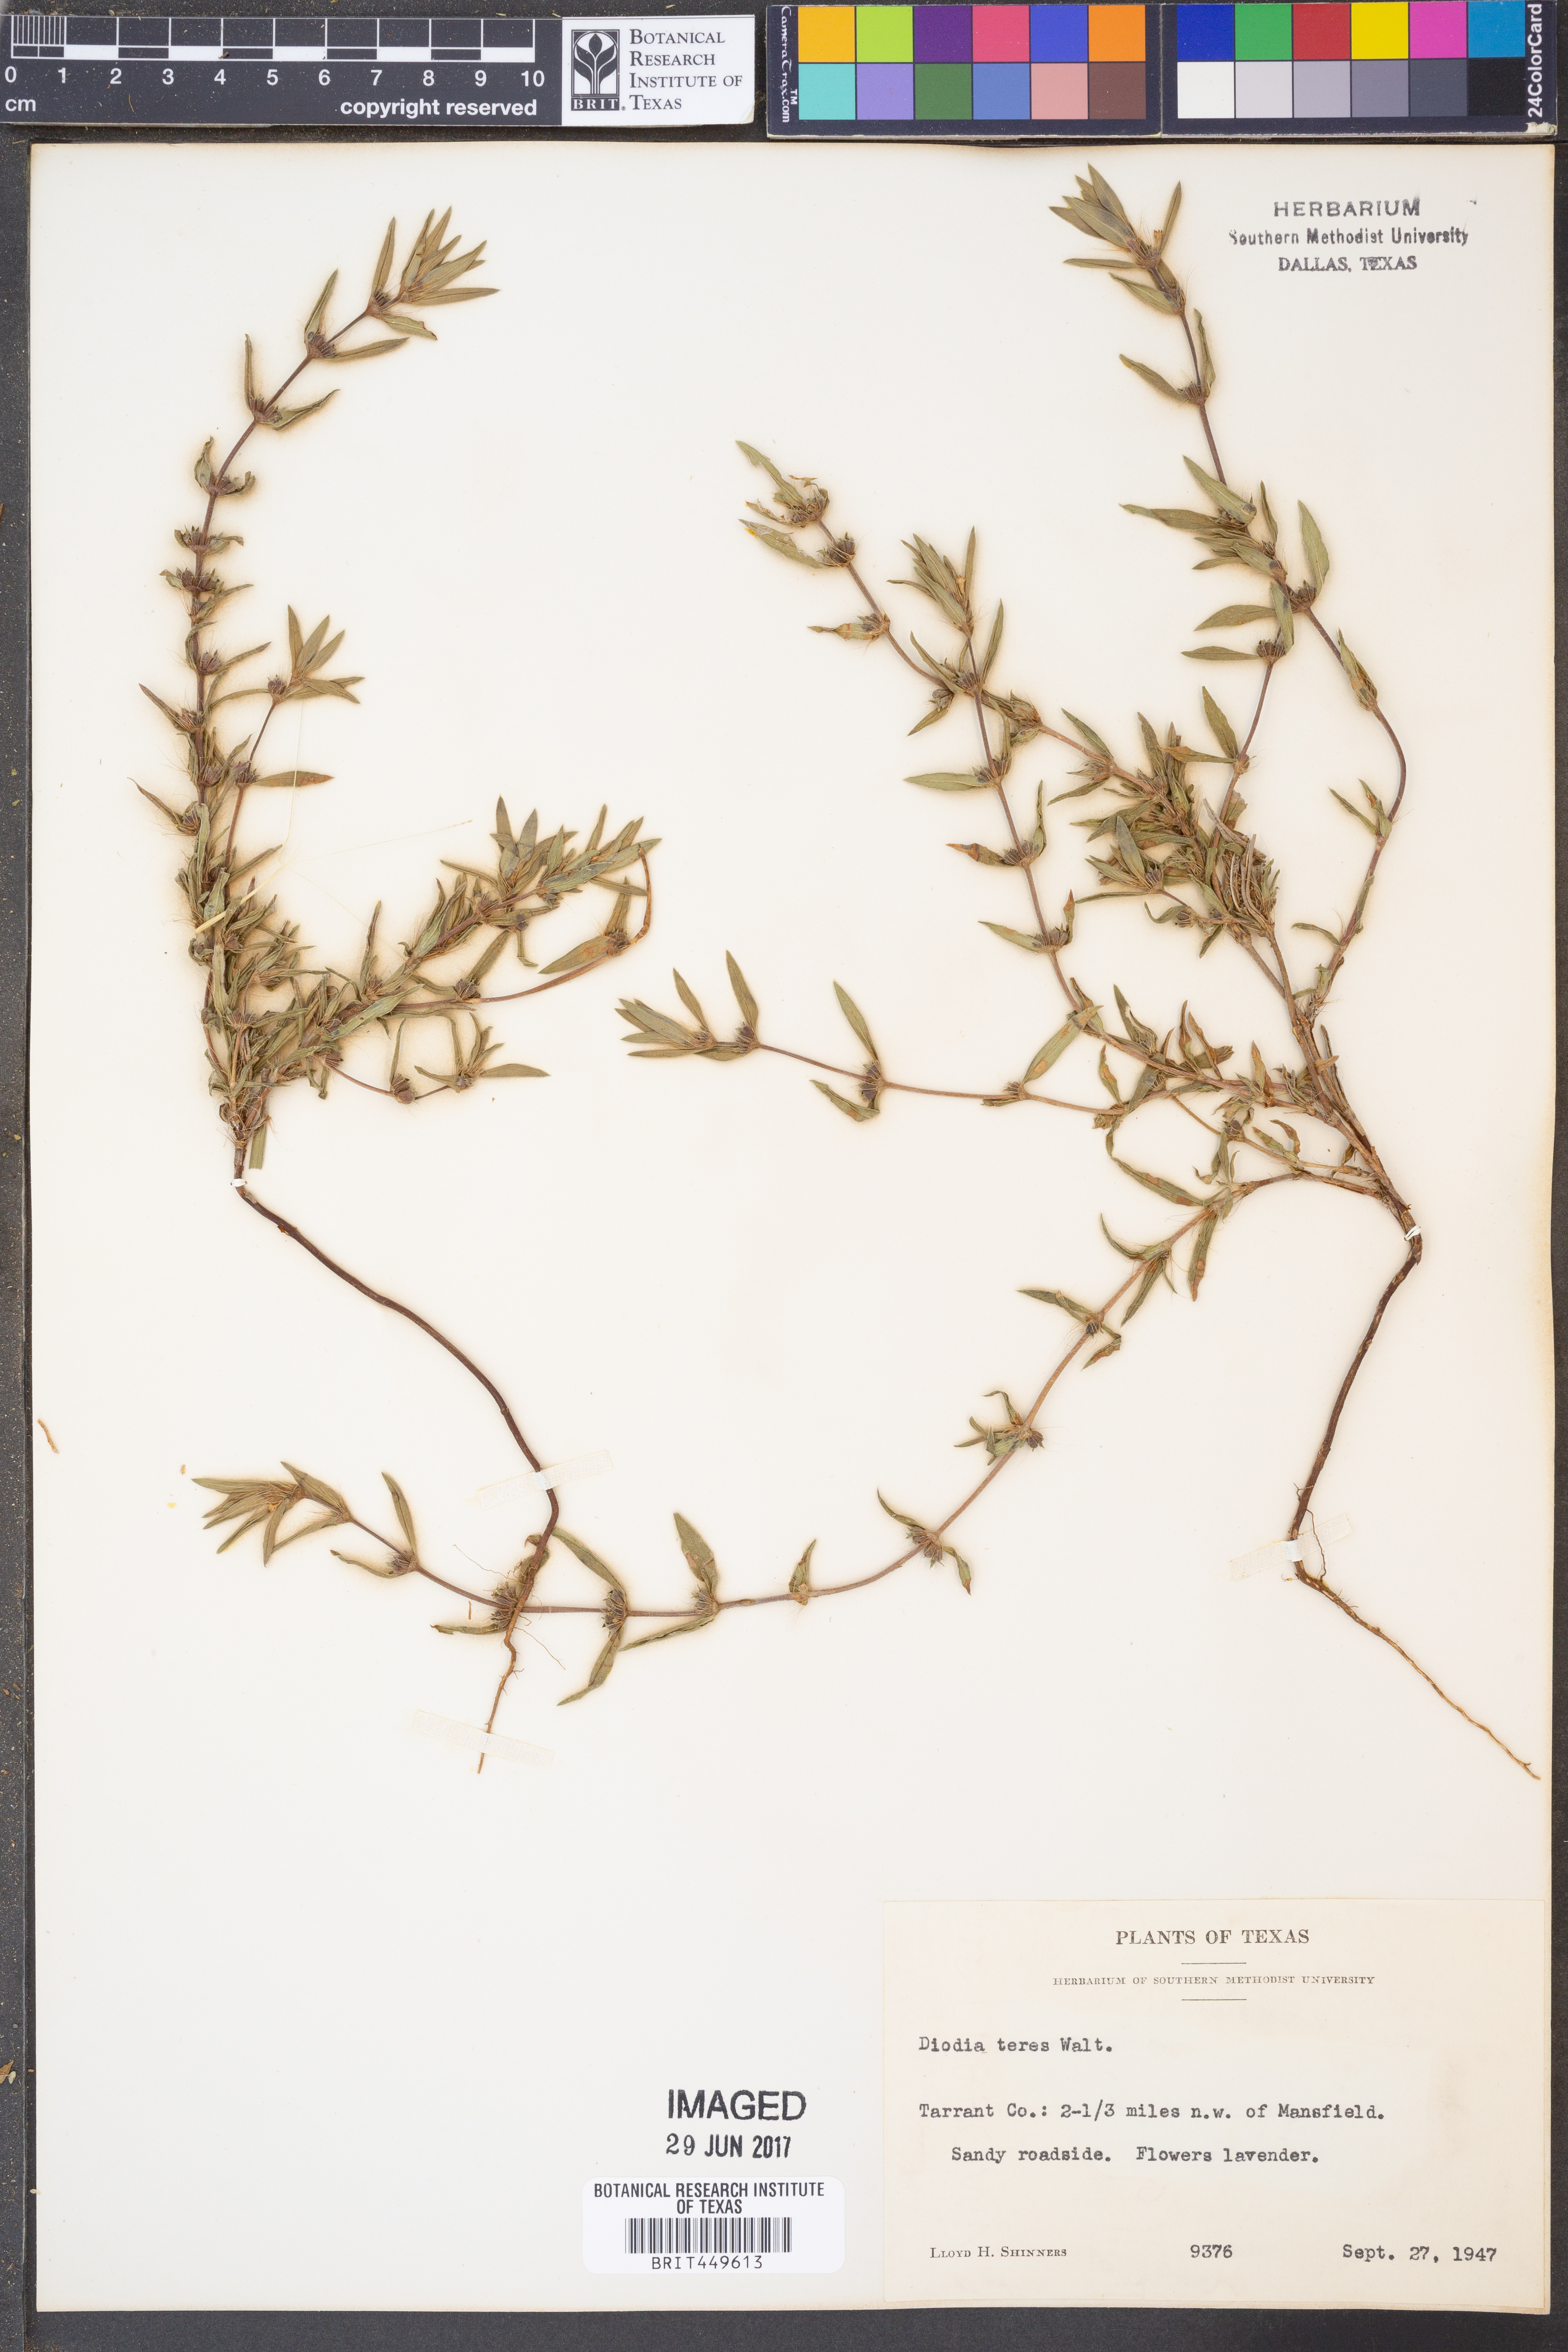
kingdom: Plantae
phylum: Tracheophyta
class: Magnoliopsida
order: Gentianales
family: Rubiaceae
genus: Hexasepalum
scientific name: Hexasepalum teres
